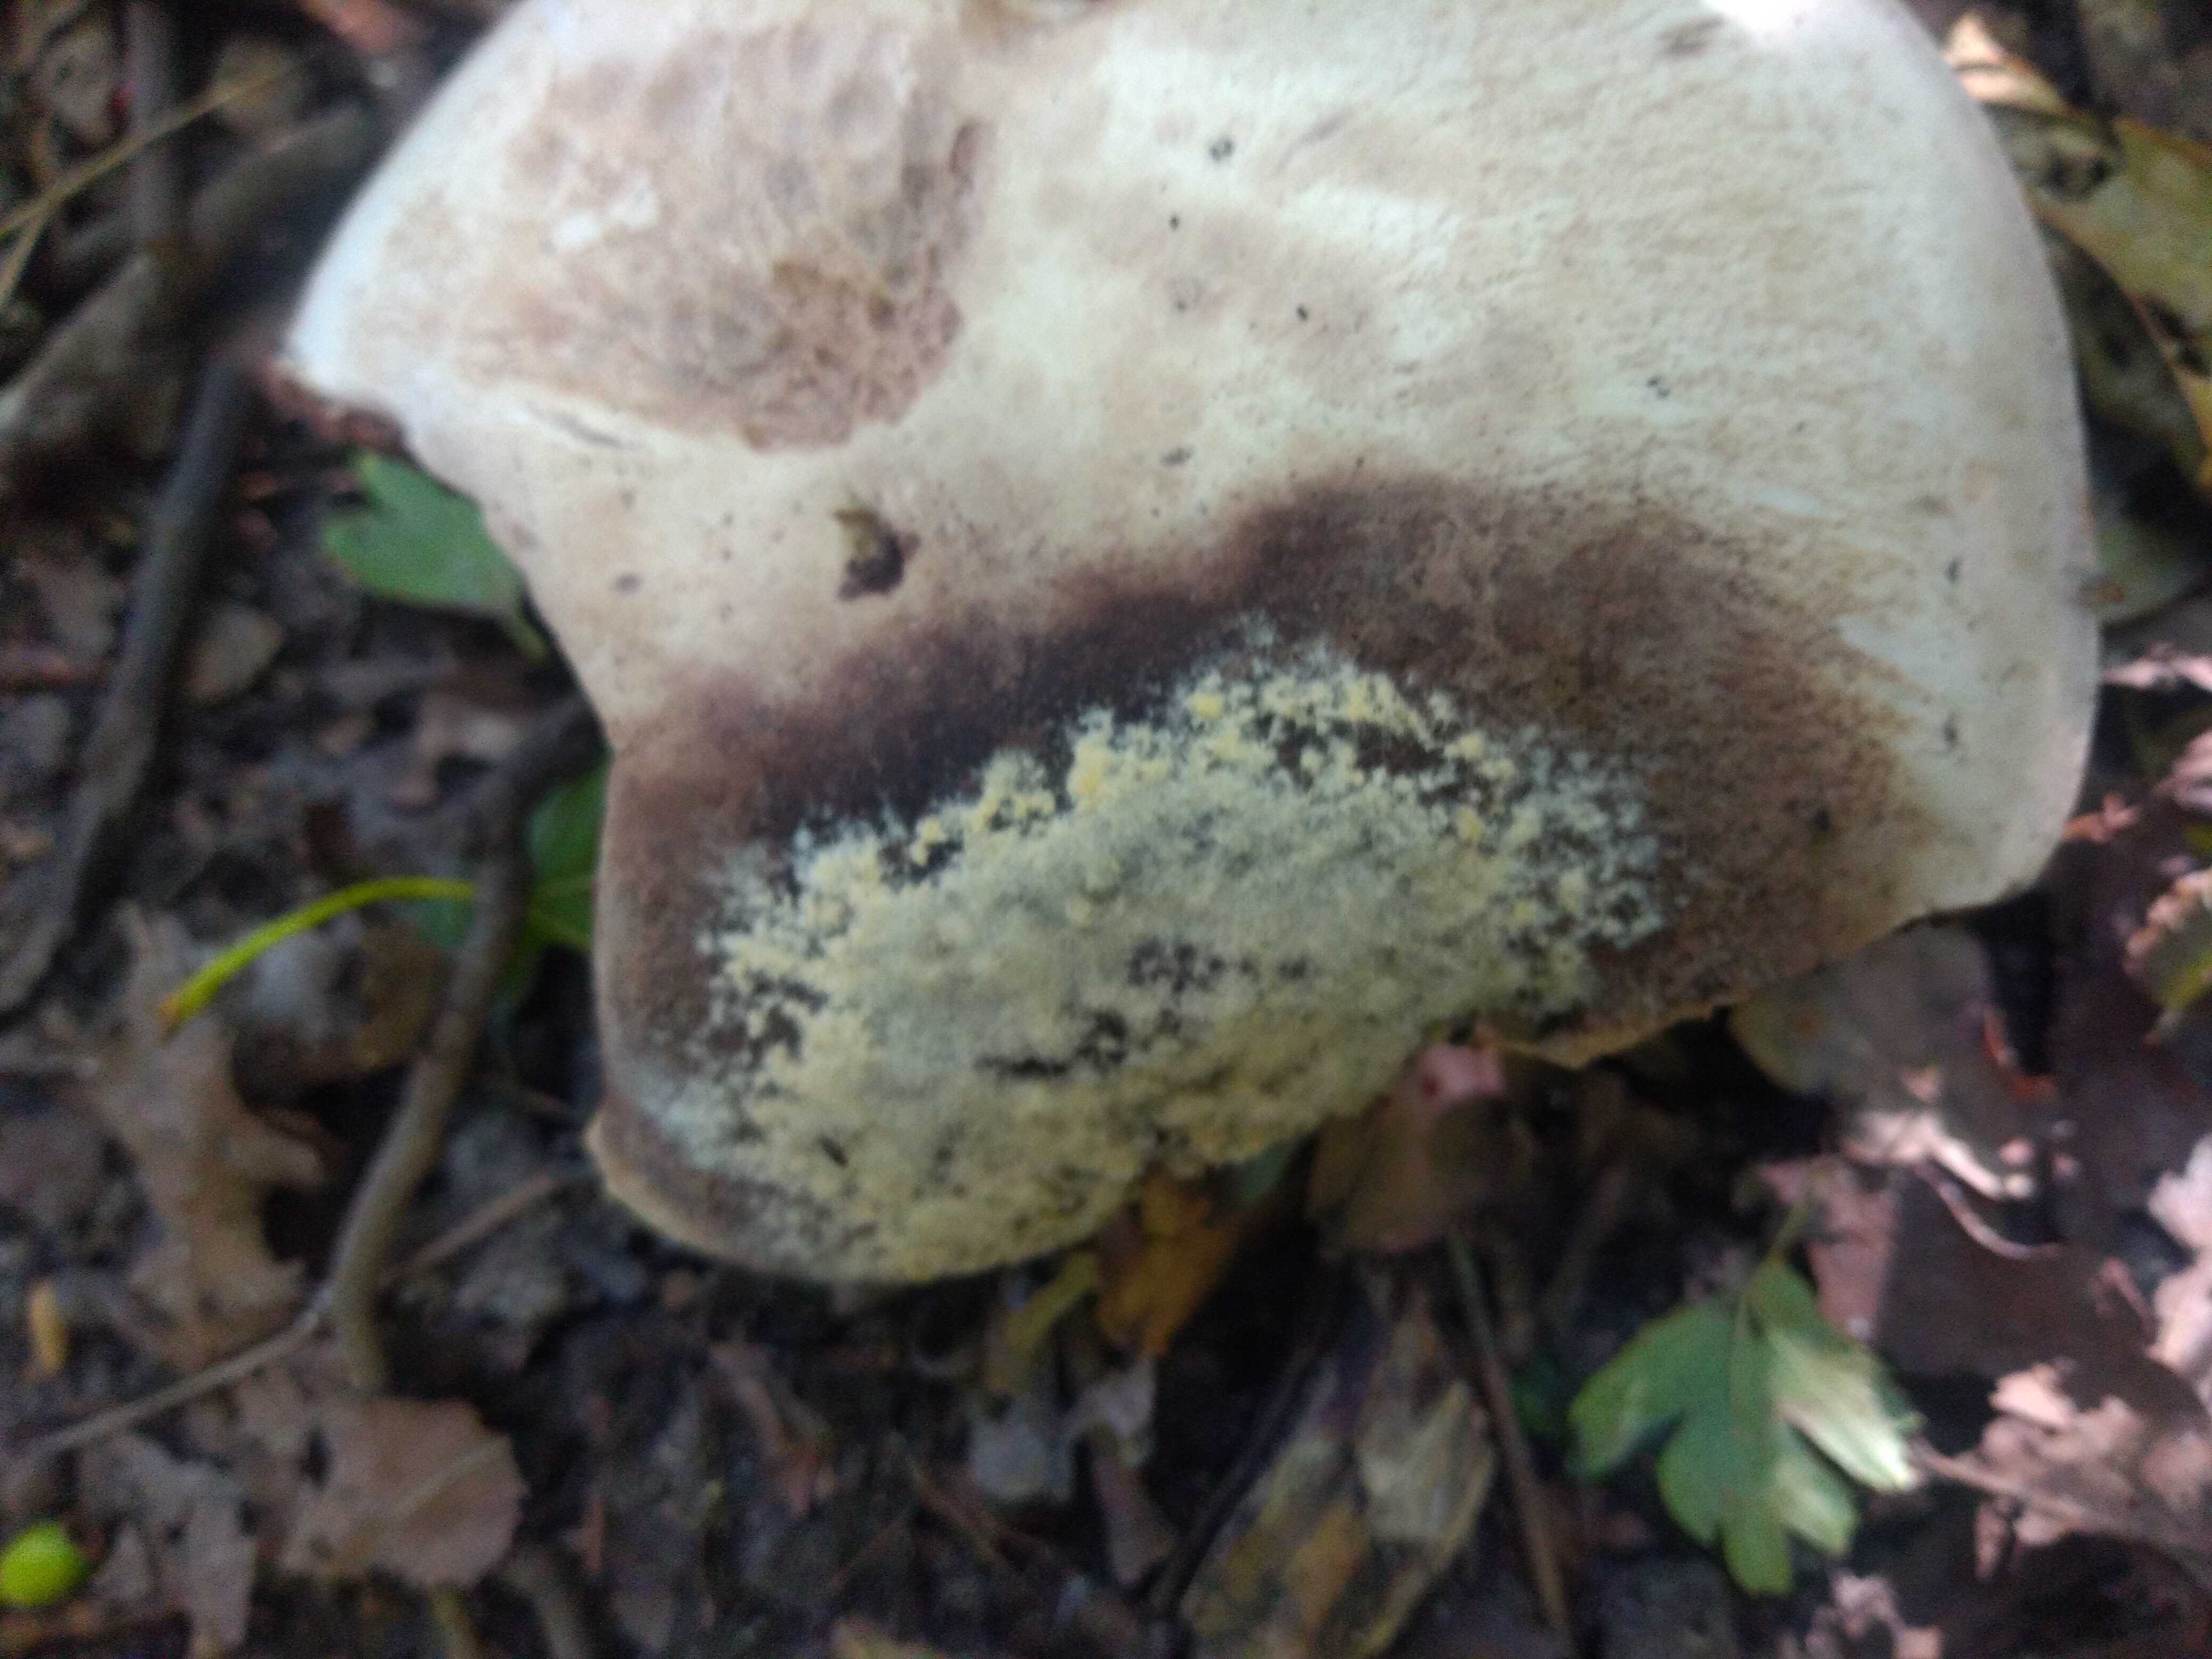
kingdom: Fungi
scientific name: Fungi
